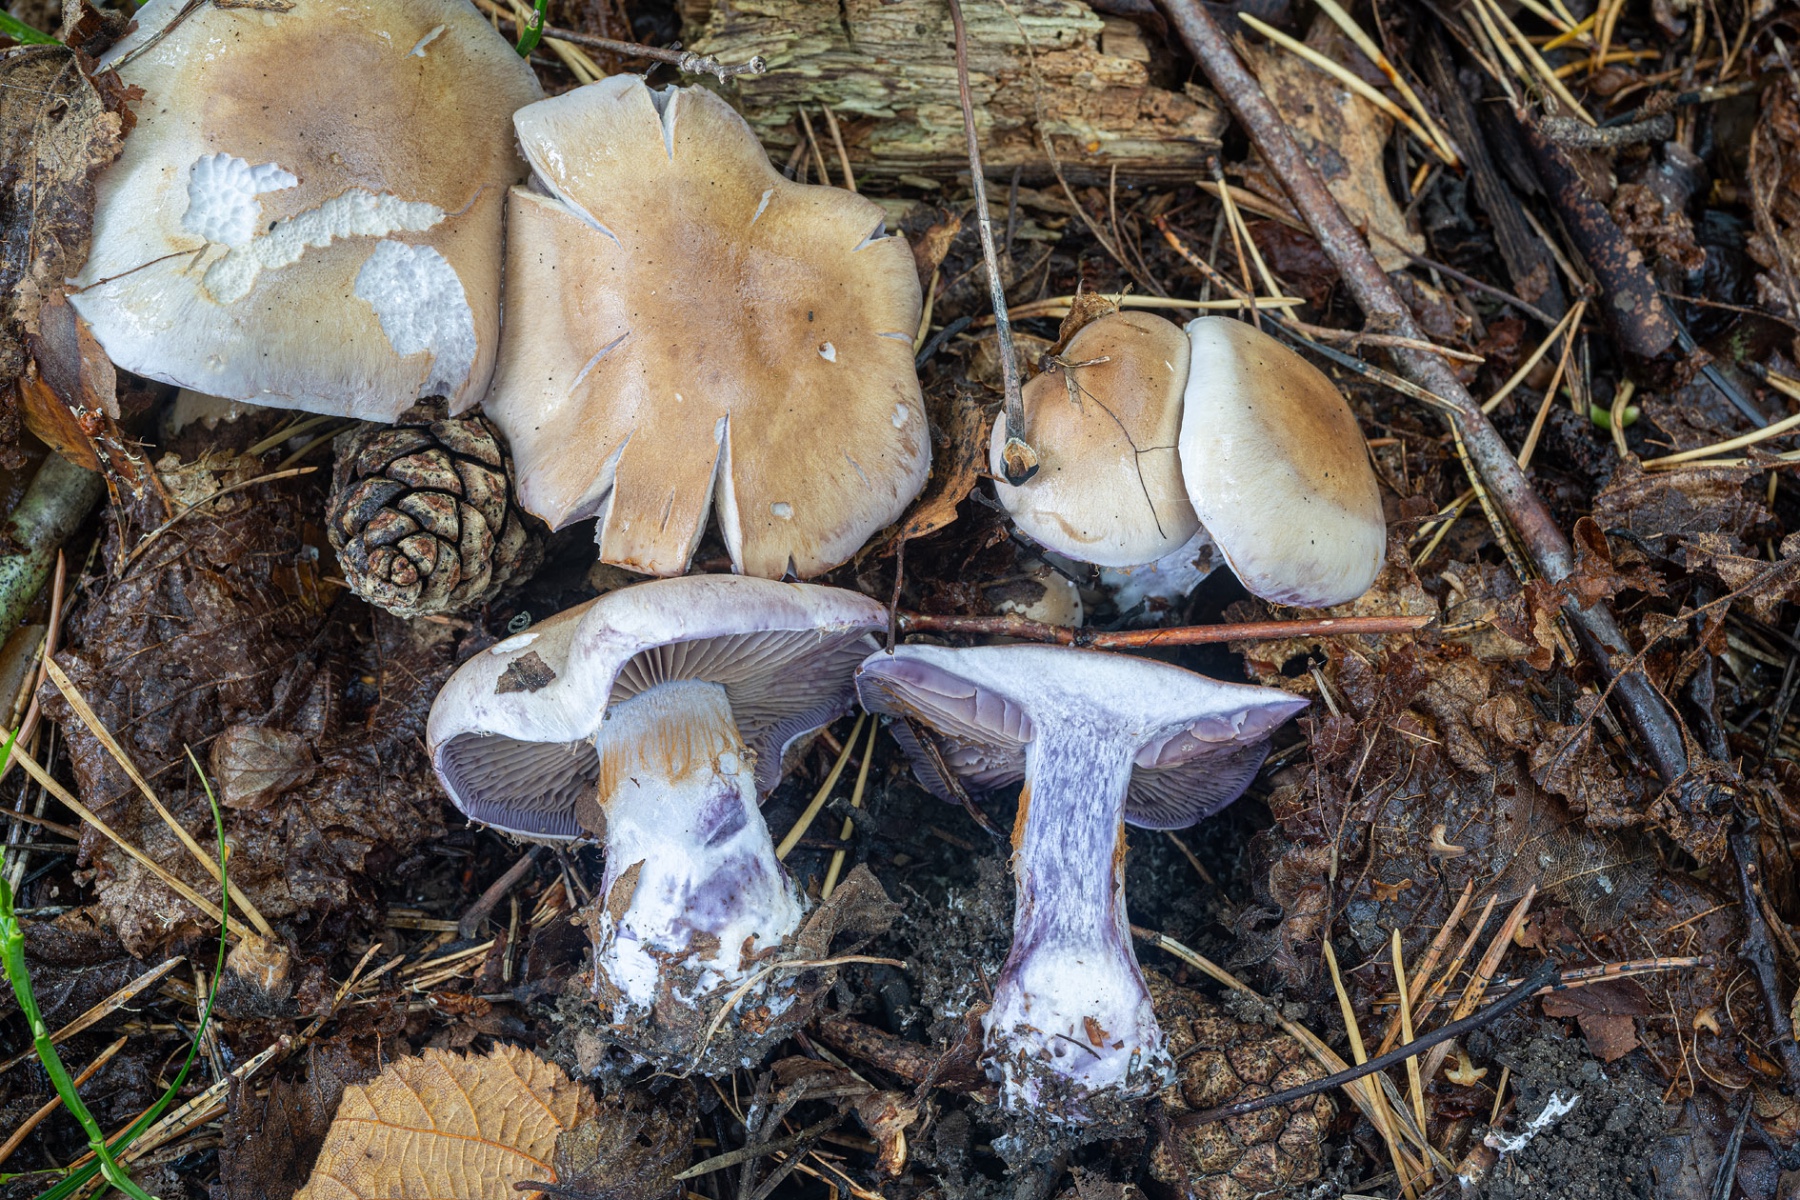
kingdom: Fungi
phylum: Basidiomycota
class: Agaricomycetes
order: Agaricales
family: Cortinariaceae
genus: Thaxterogaster
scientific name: Thaxterogaster porphyropus
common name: purpurstokket slørhat
